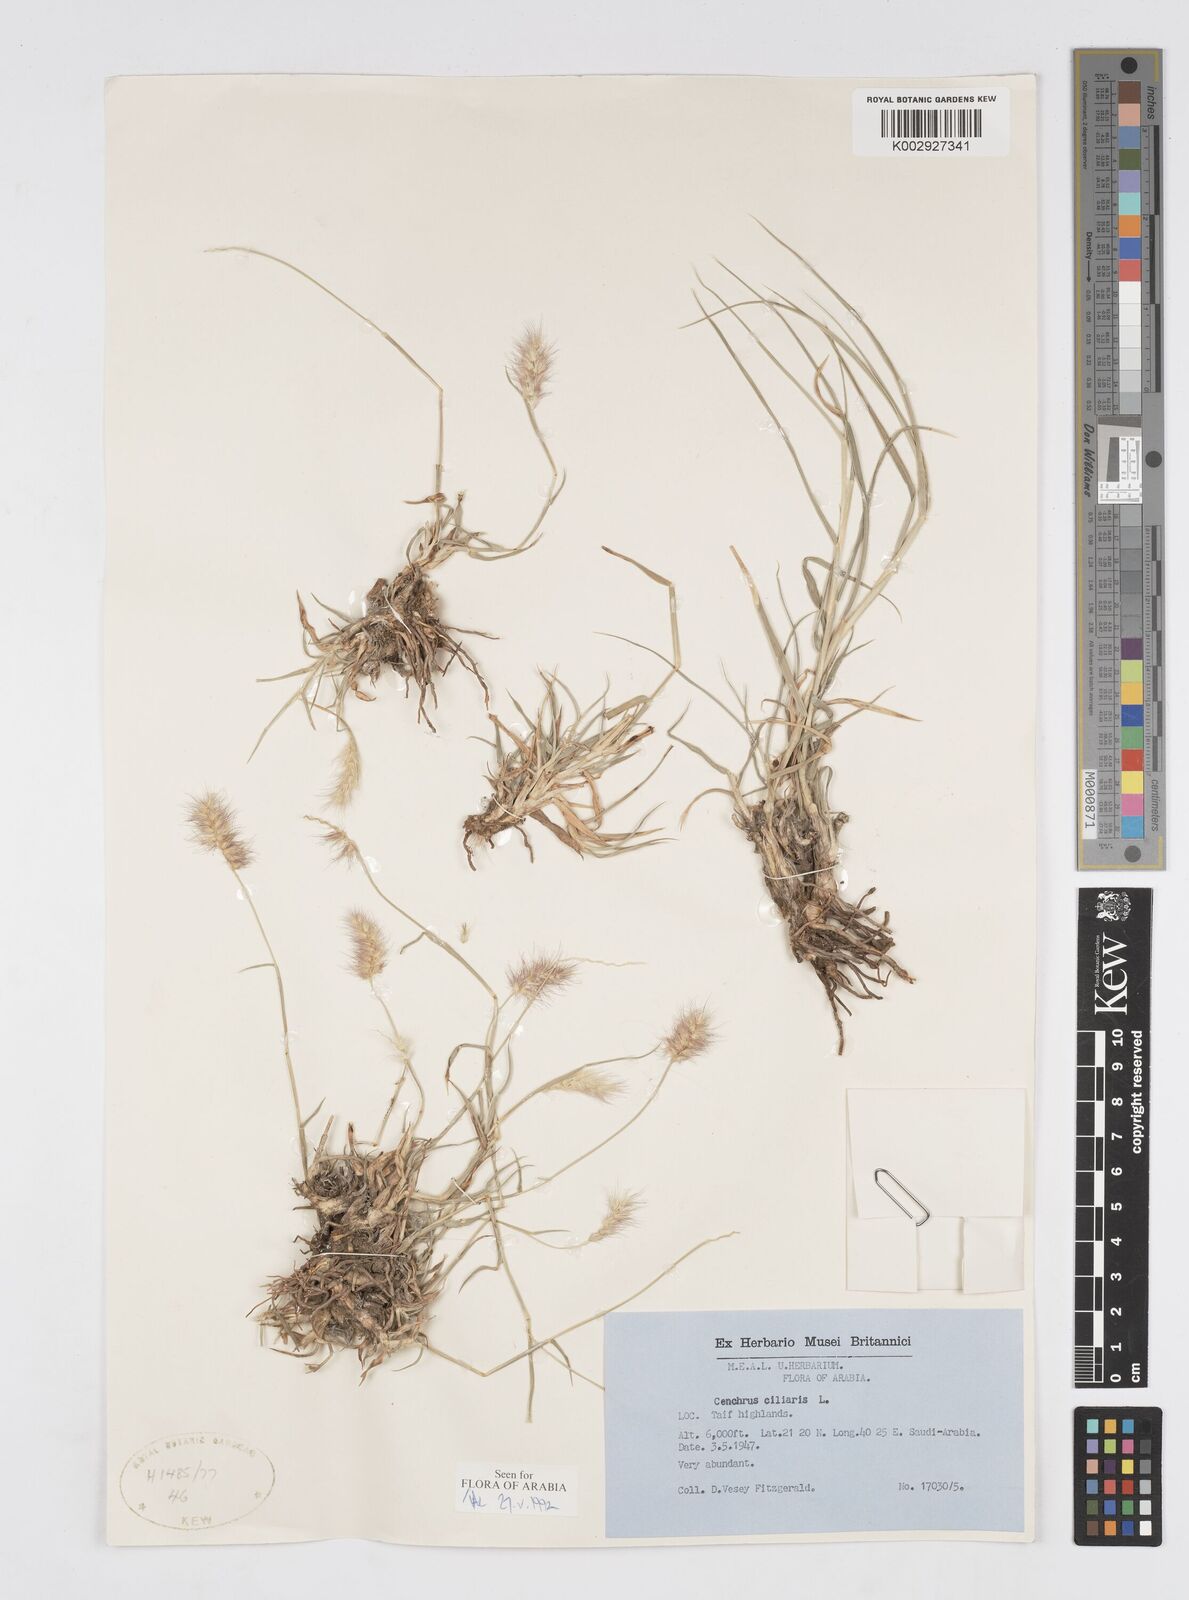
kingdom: Plantae
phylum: Tracheophyta
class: Liliopsida
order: Poales
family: Poaceae
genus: Cenchrus
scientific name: Cenchrus ciliaris
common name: Buffelgrass
